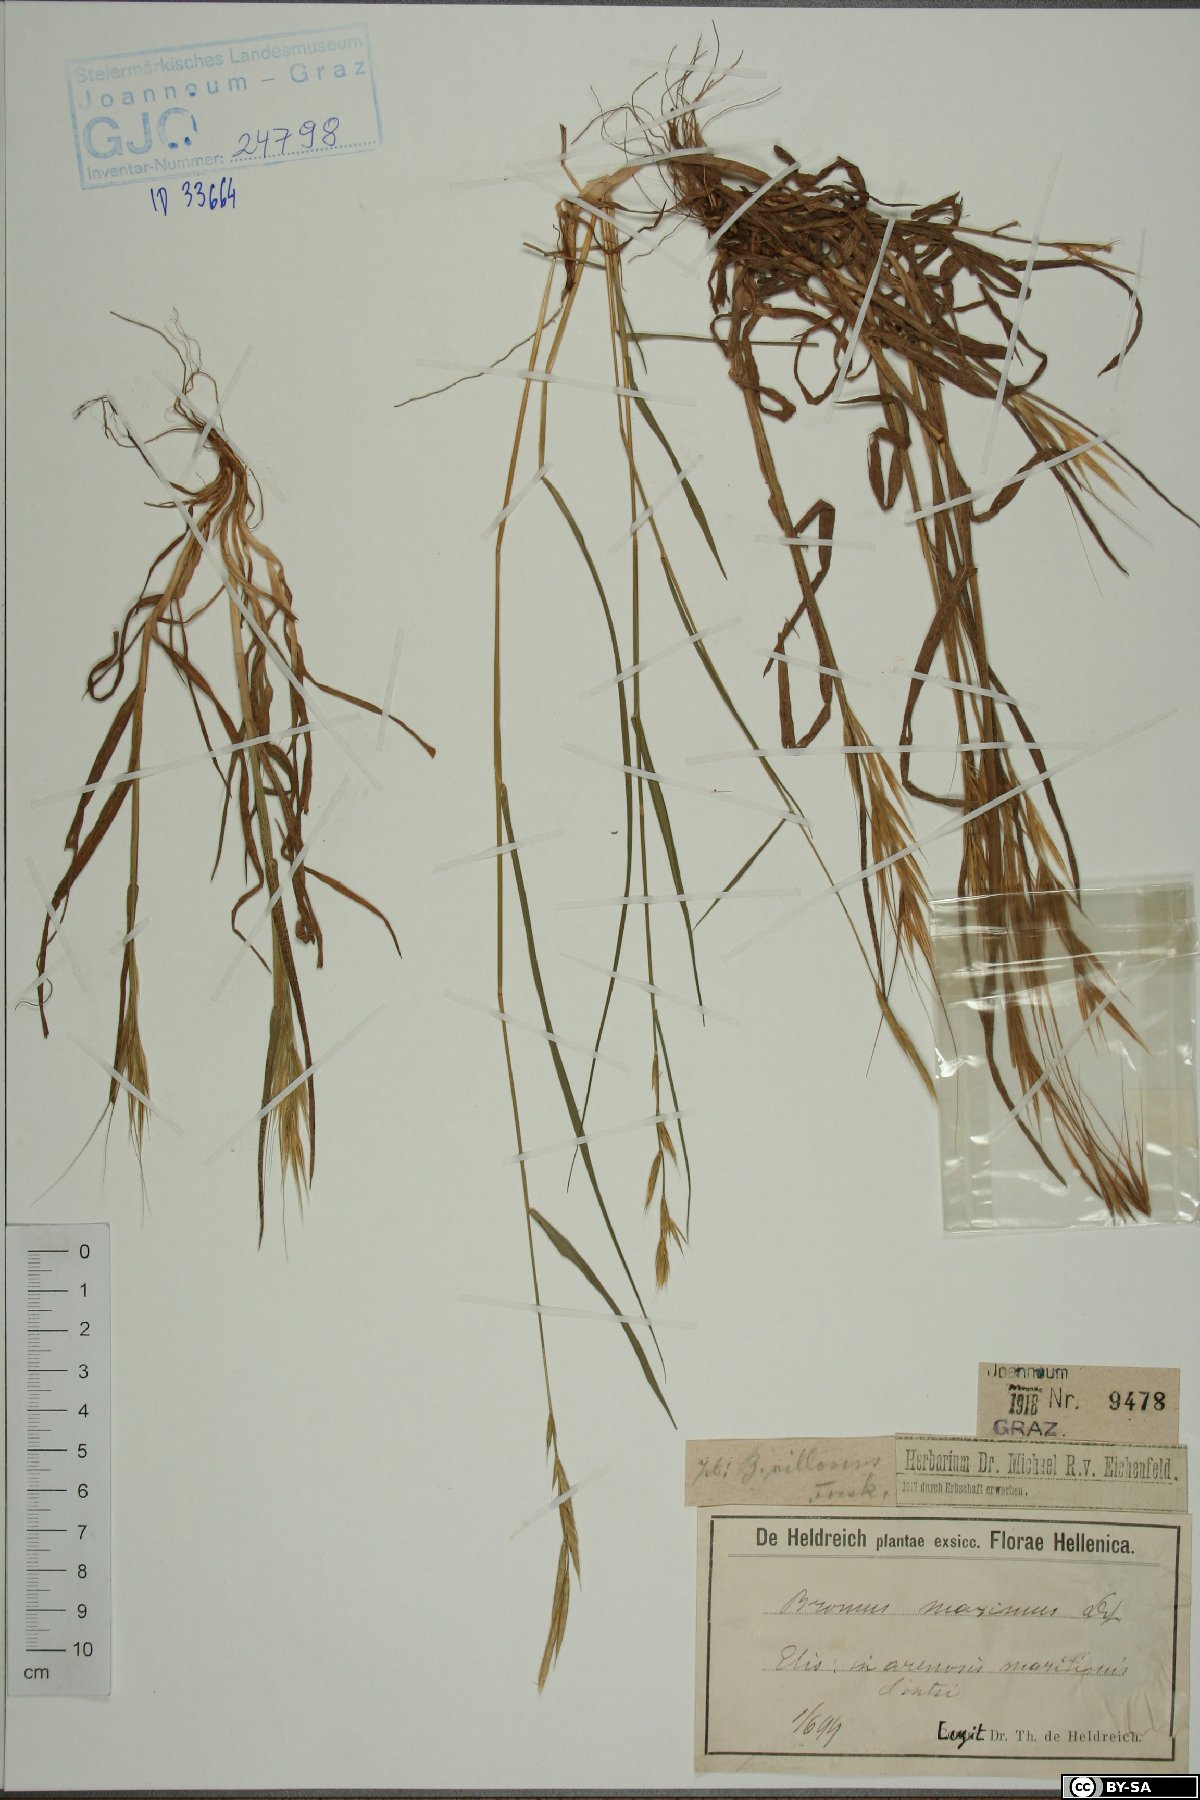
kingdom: Plantae
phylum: Tracheophyta
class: Liliopsida
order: Poales
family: Poaceae
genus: Bromus
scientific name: Bromus rigidus
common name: Ripgut brome
